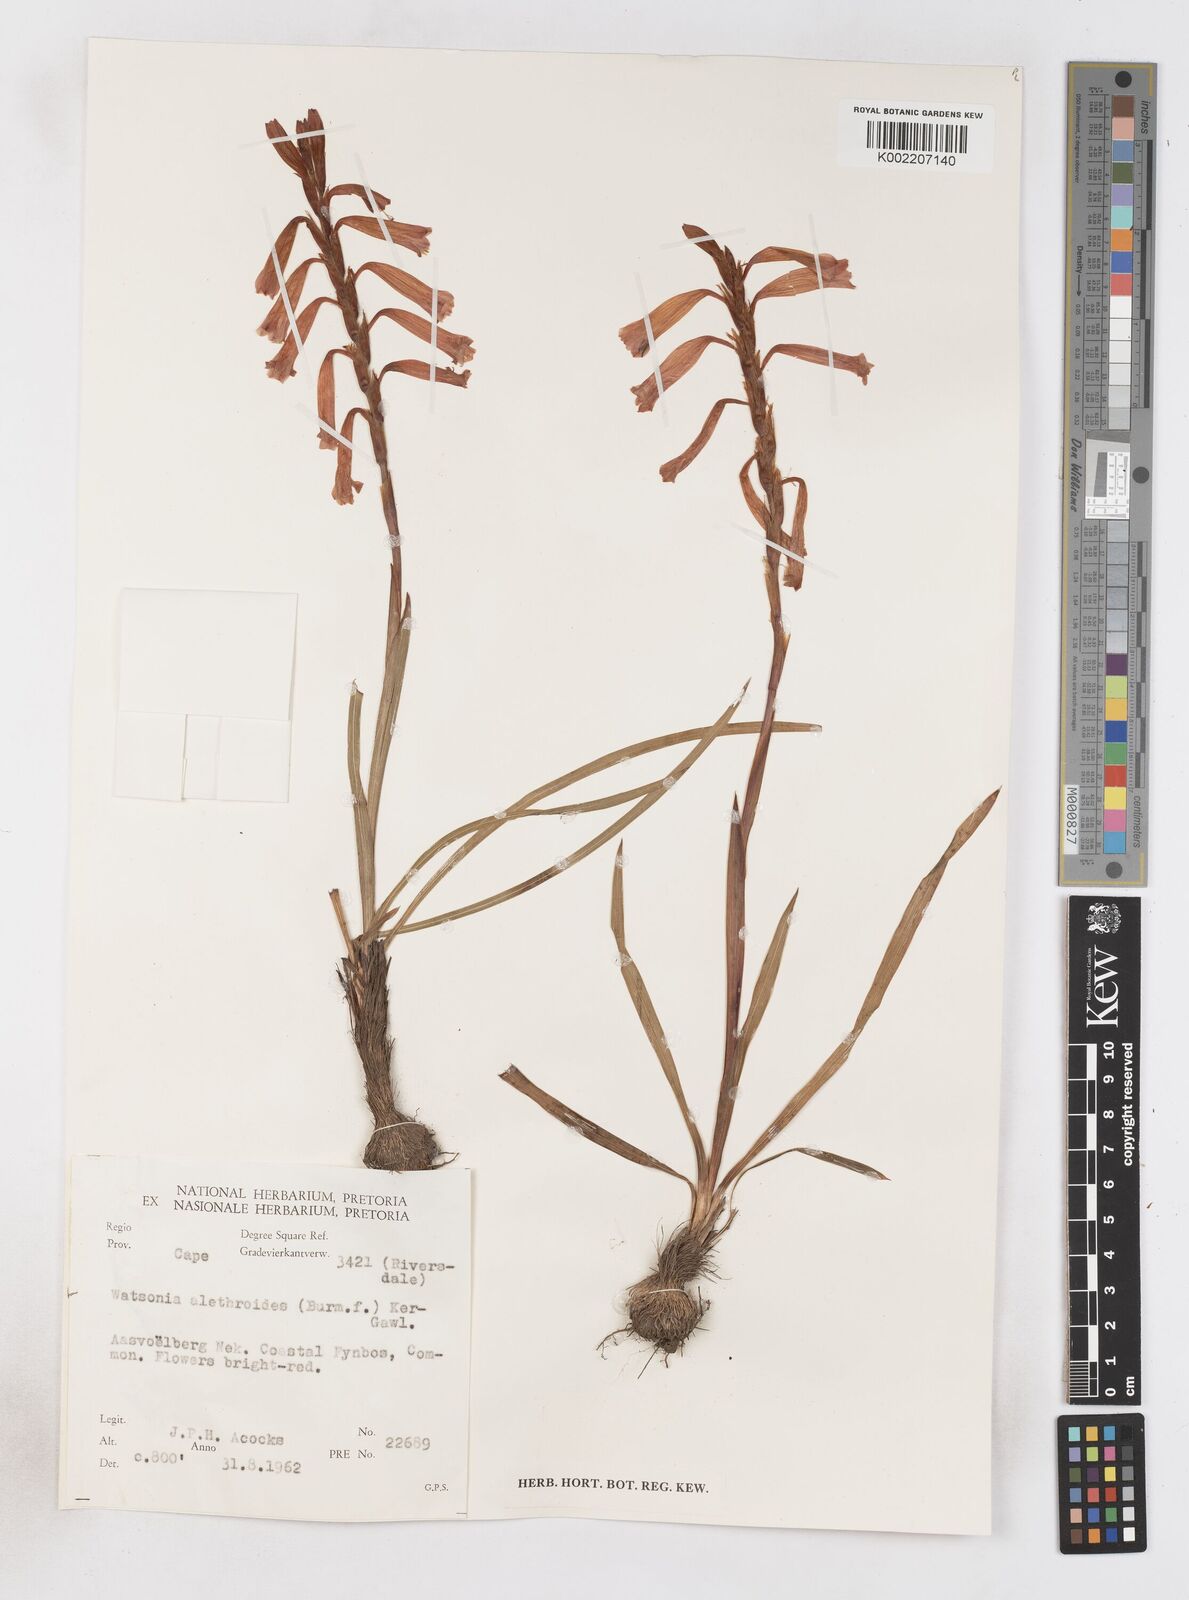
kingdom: Plantae
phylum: Tracheophyta
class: Liliopsida
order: Asparagales
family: Iridaceae
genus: Watsonia
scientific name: Watsonia aletroides
